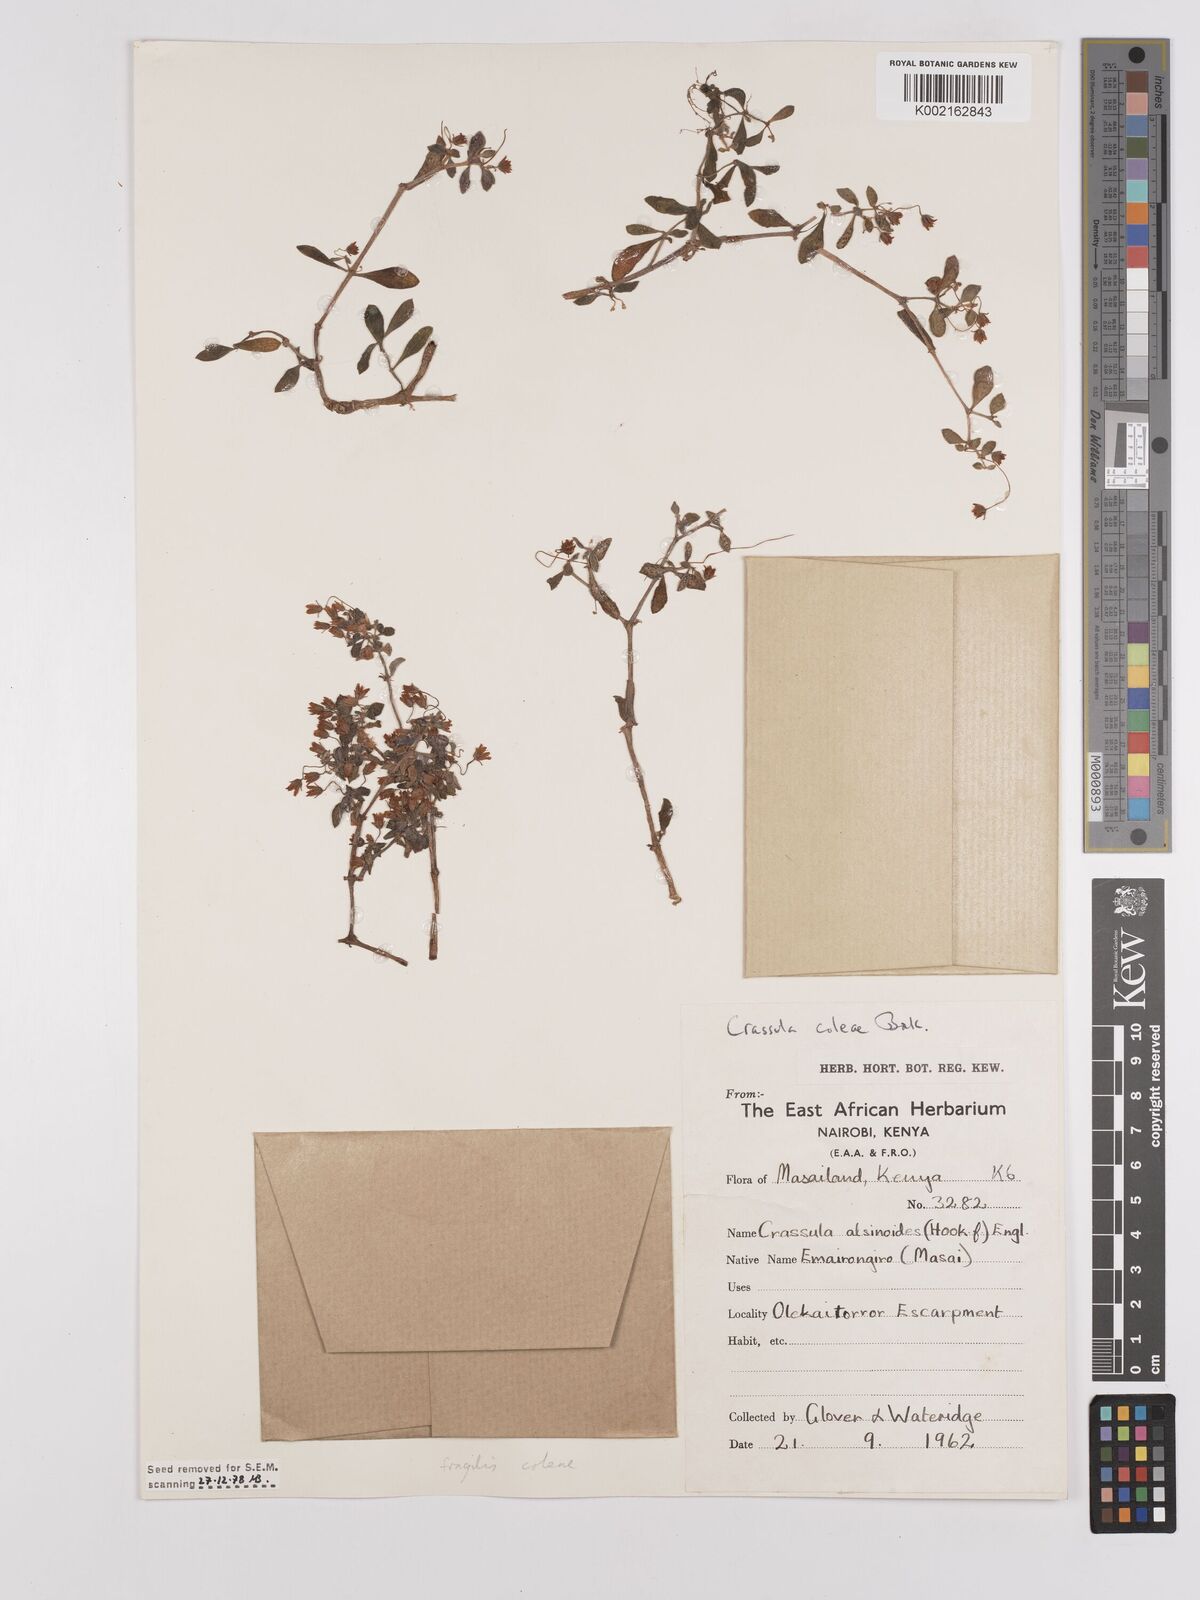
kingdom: Plantae
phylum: Tracheophyta
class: Magnoliopsida
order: Saxifragales
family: Crassulaceae
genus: Crassula
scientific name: Crassula volkensii
